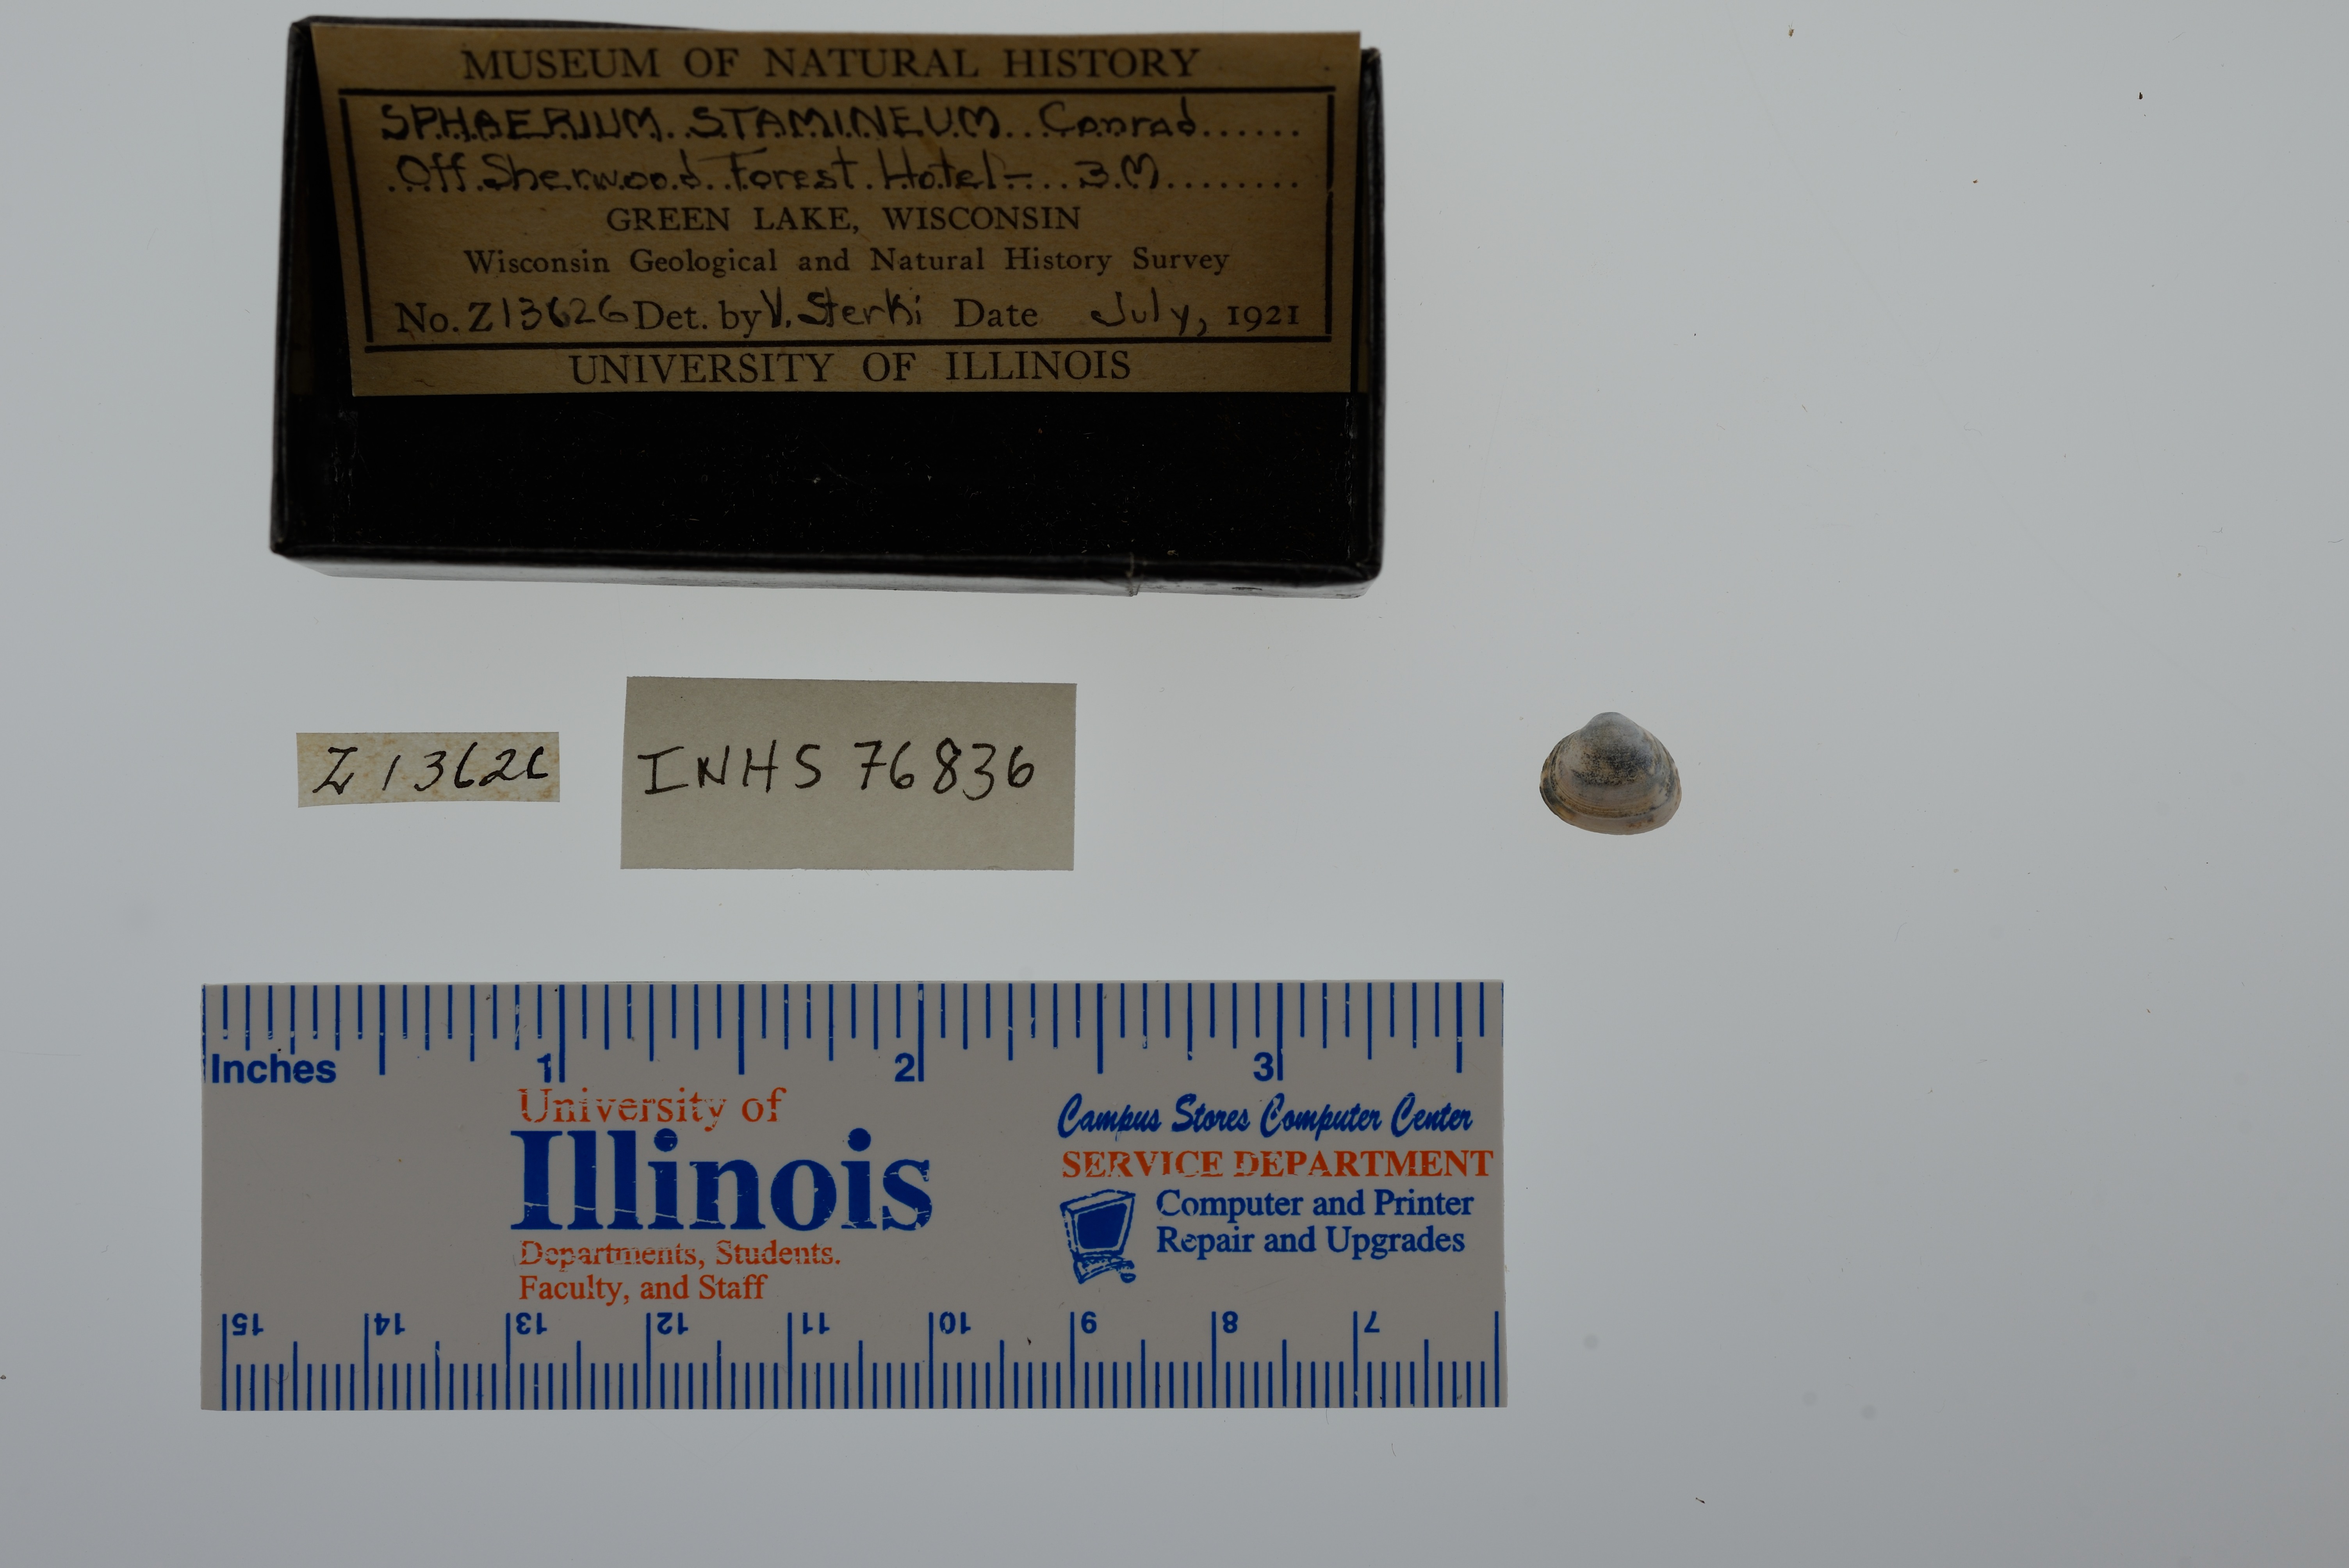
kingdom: Animalia
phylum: Mollusca
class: Bivalvia
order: Sphaeriida
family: Sphaeriidae
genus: Sphaerium
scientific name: Sphaerium striatinum
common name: Striated fingernailclam
